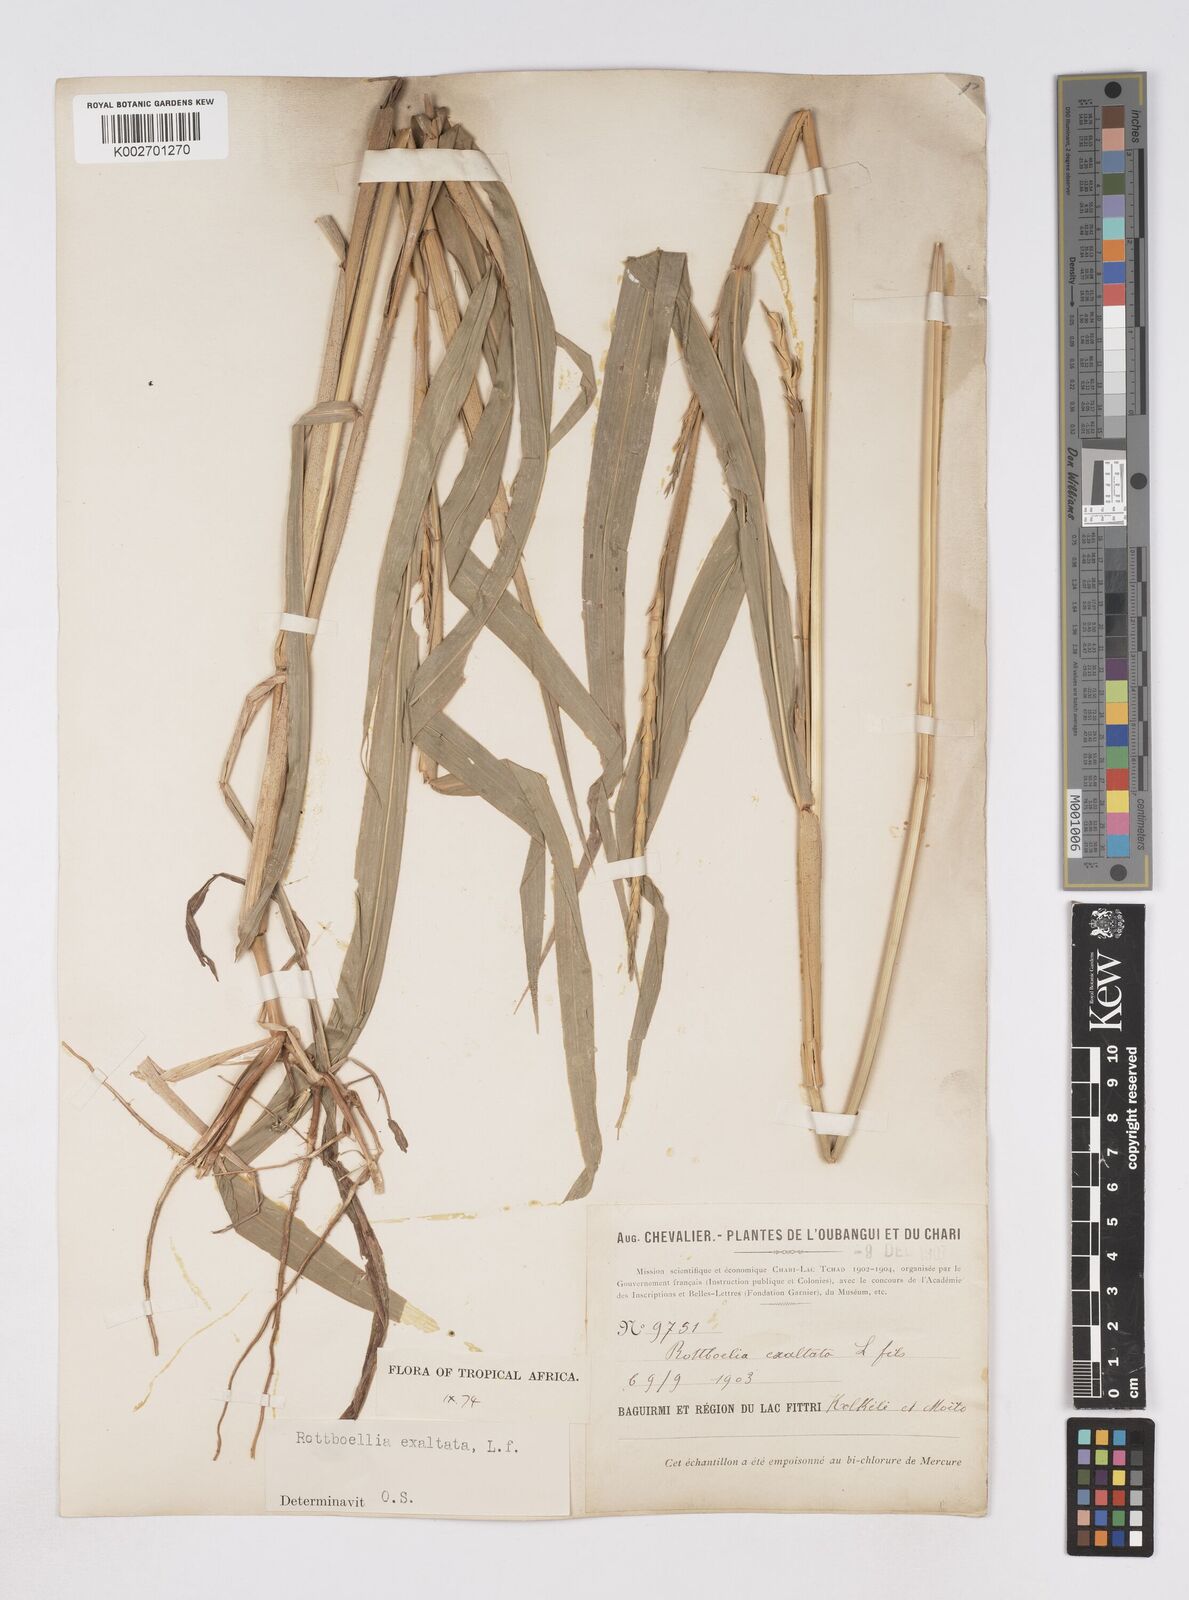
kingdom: Plantae
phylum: Tracheophyta
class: Liliopsida
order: Poales
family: Poaceae
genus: Rottboellia
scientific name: Rottboellia
